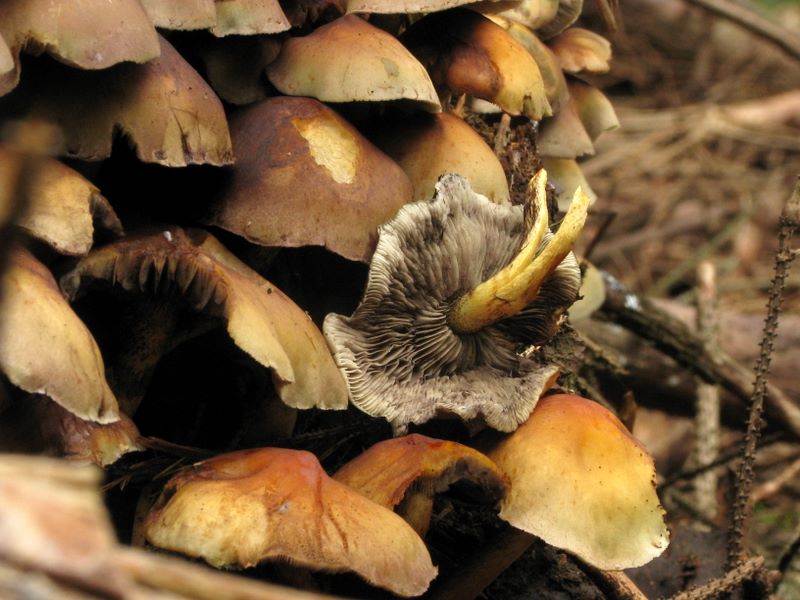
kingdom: Fungi
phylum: Basidiomycota
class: Agaricomycetes
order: Agaricales
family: Strophariaceae
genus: Hypholoma
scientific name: Hypholoma capnoides
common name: gran-svovlhat
